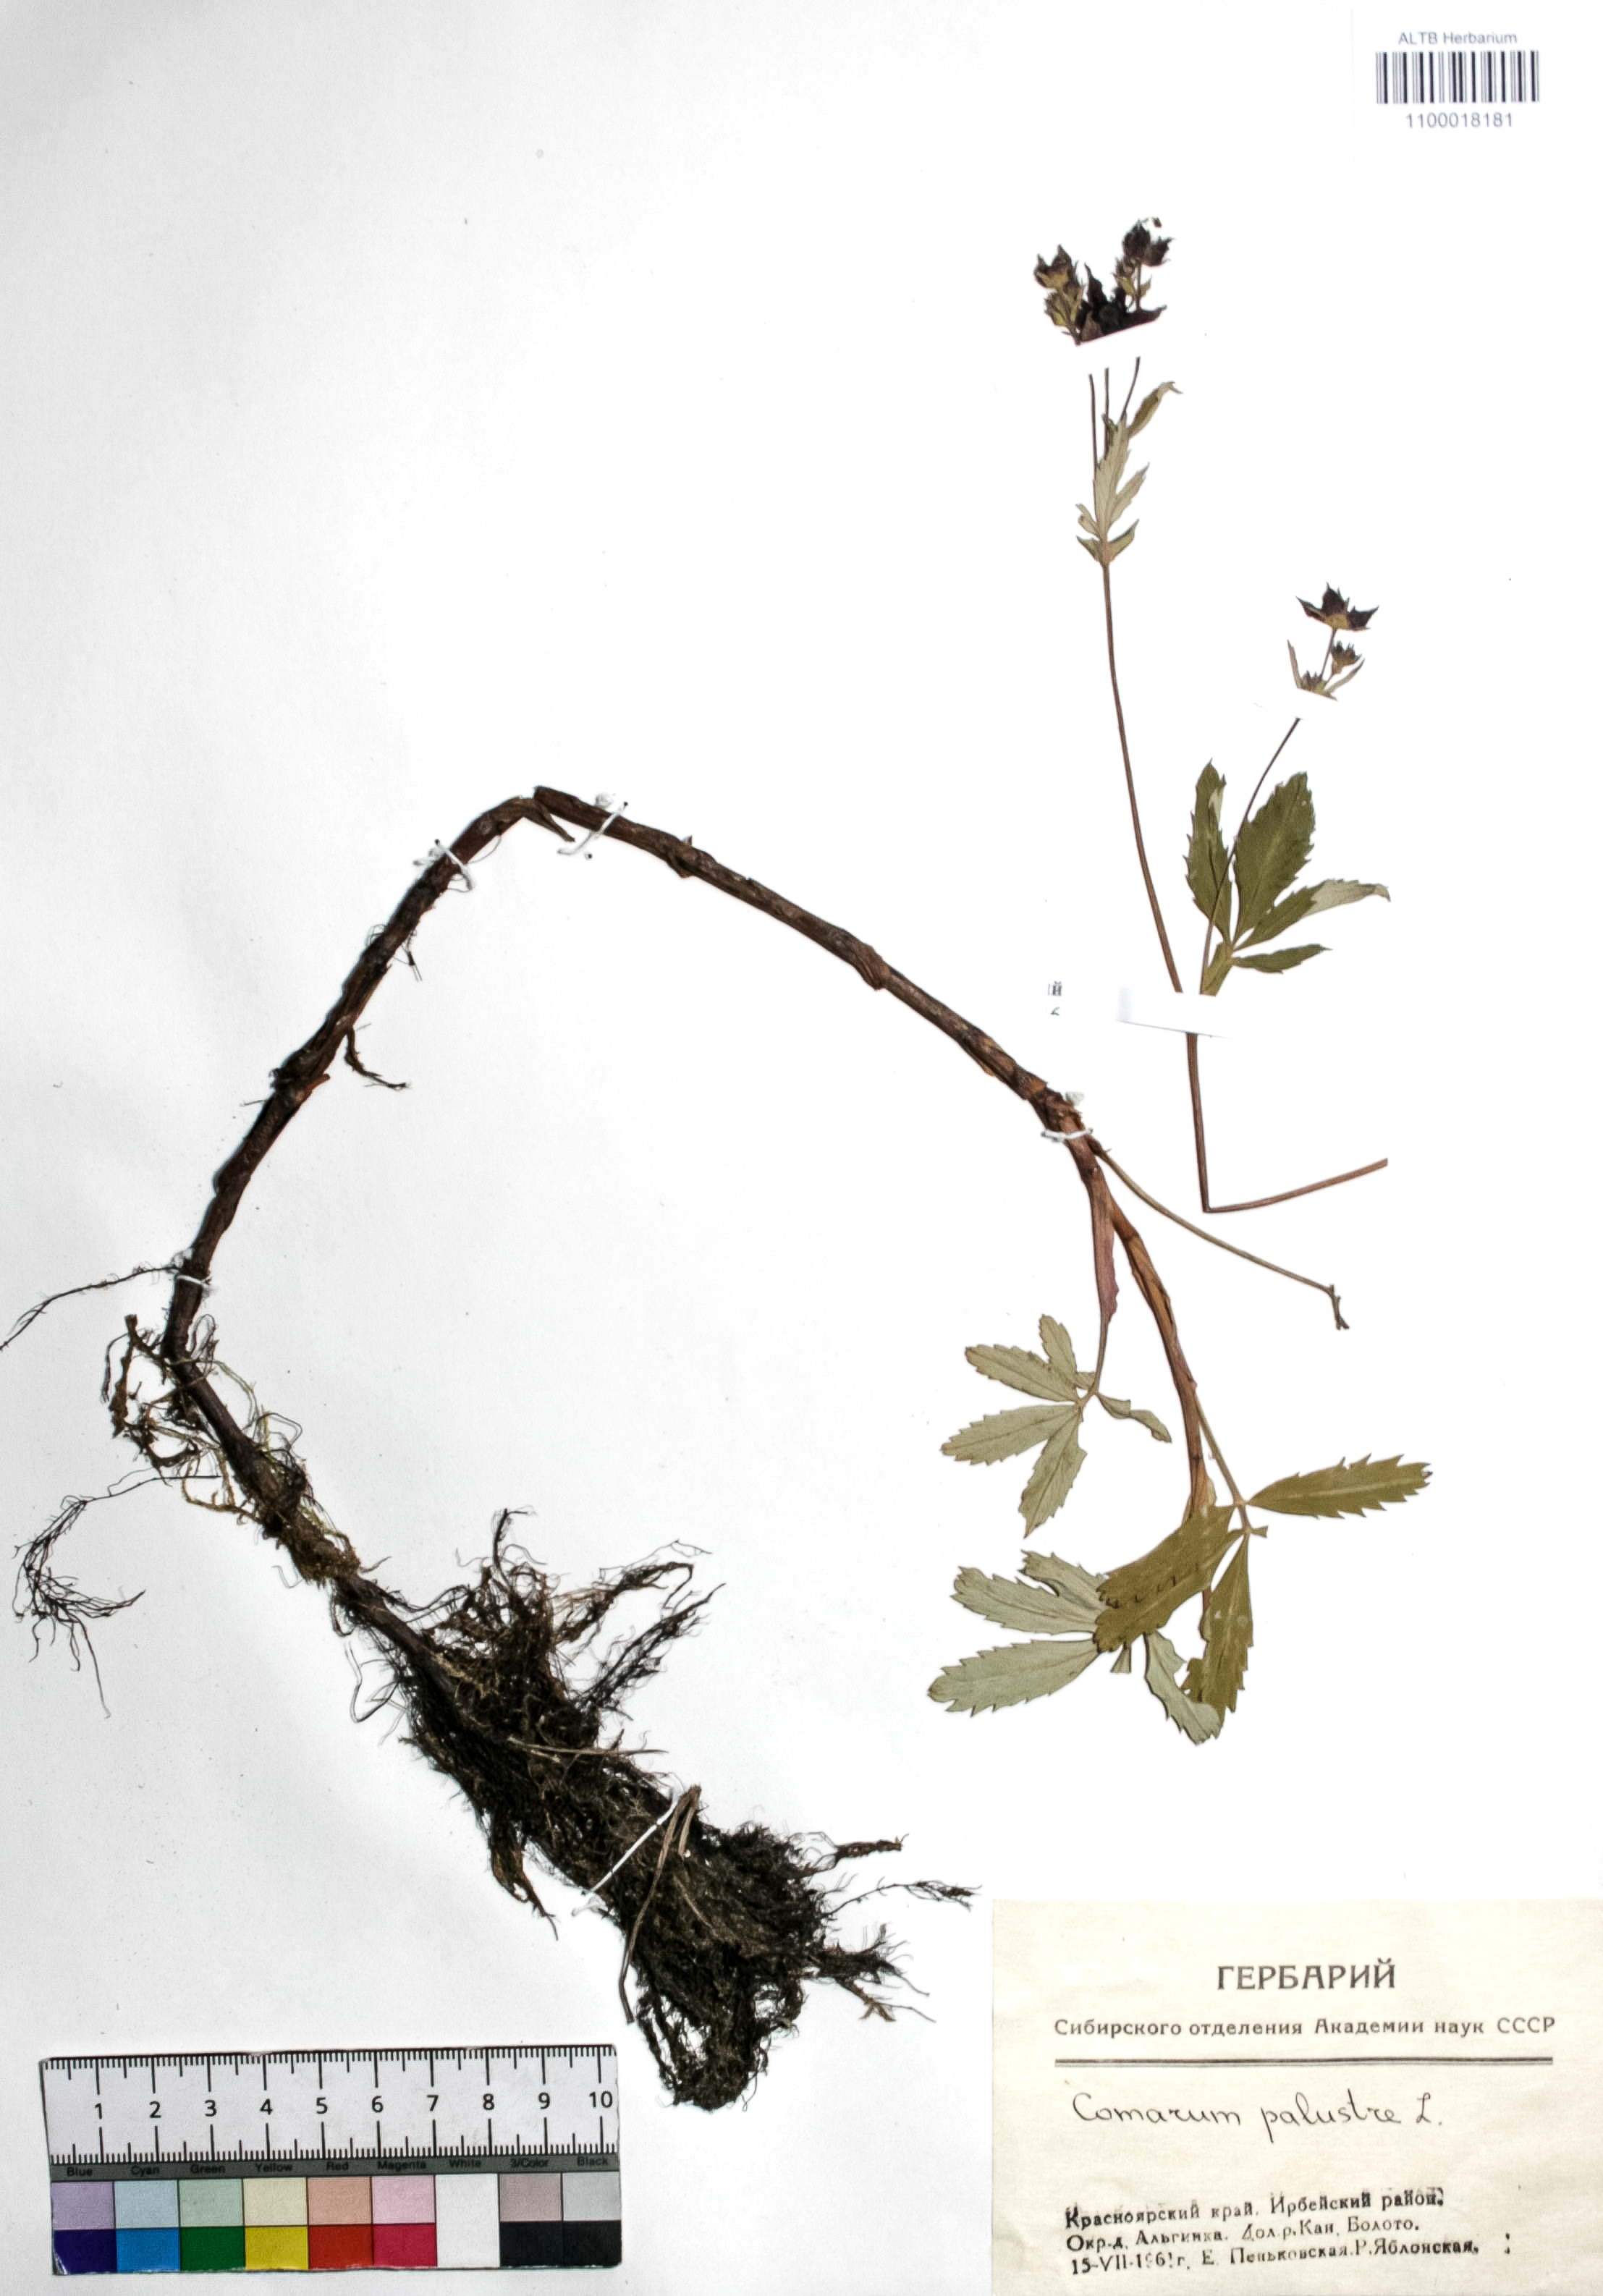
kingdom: Plantae
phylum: Tracheophyta
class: Magnoliopsida
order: Rosales
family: Rosaceae
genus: Comarum
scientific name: Comarum palustre
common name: Marsh cinquefoil
